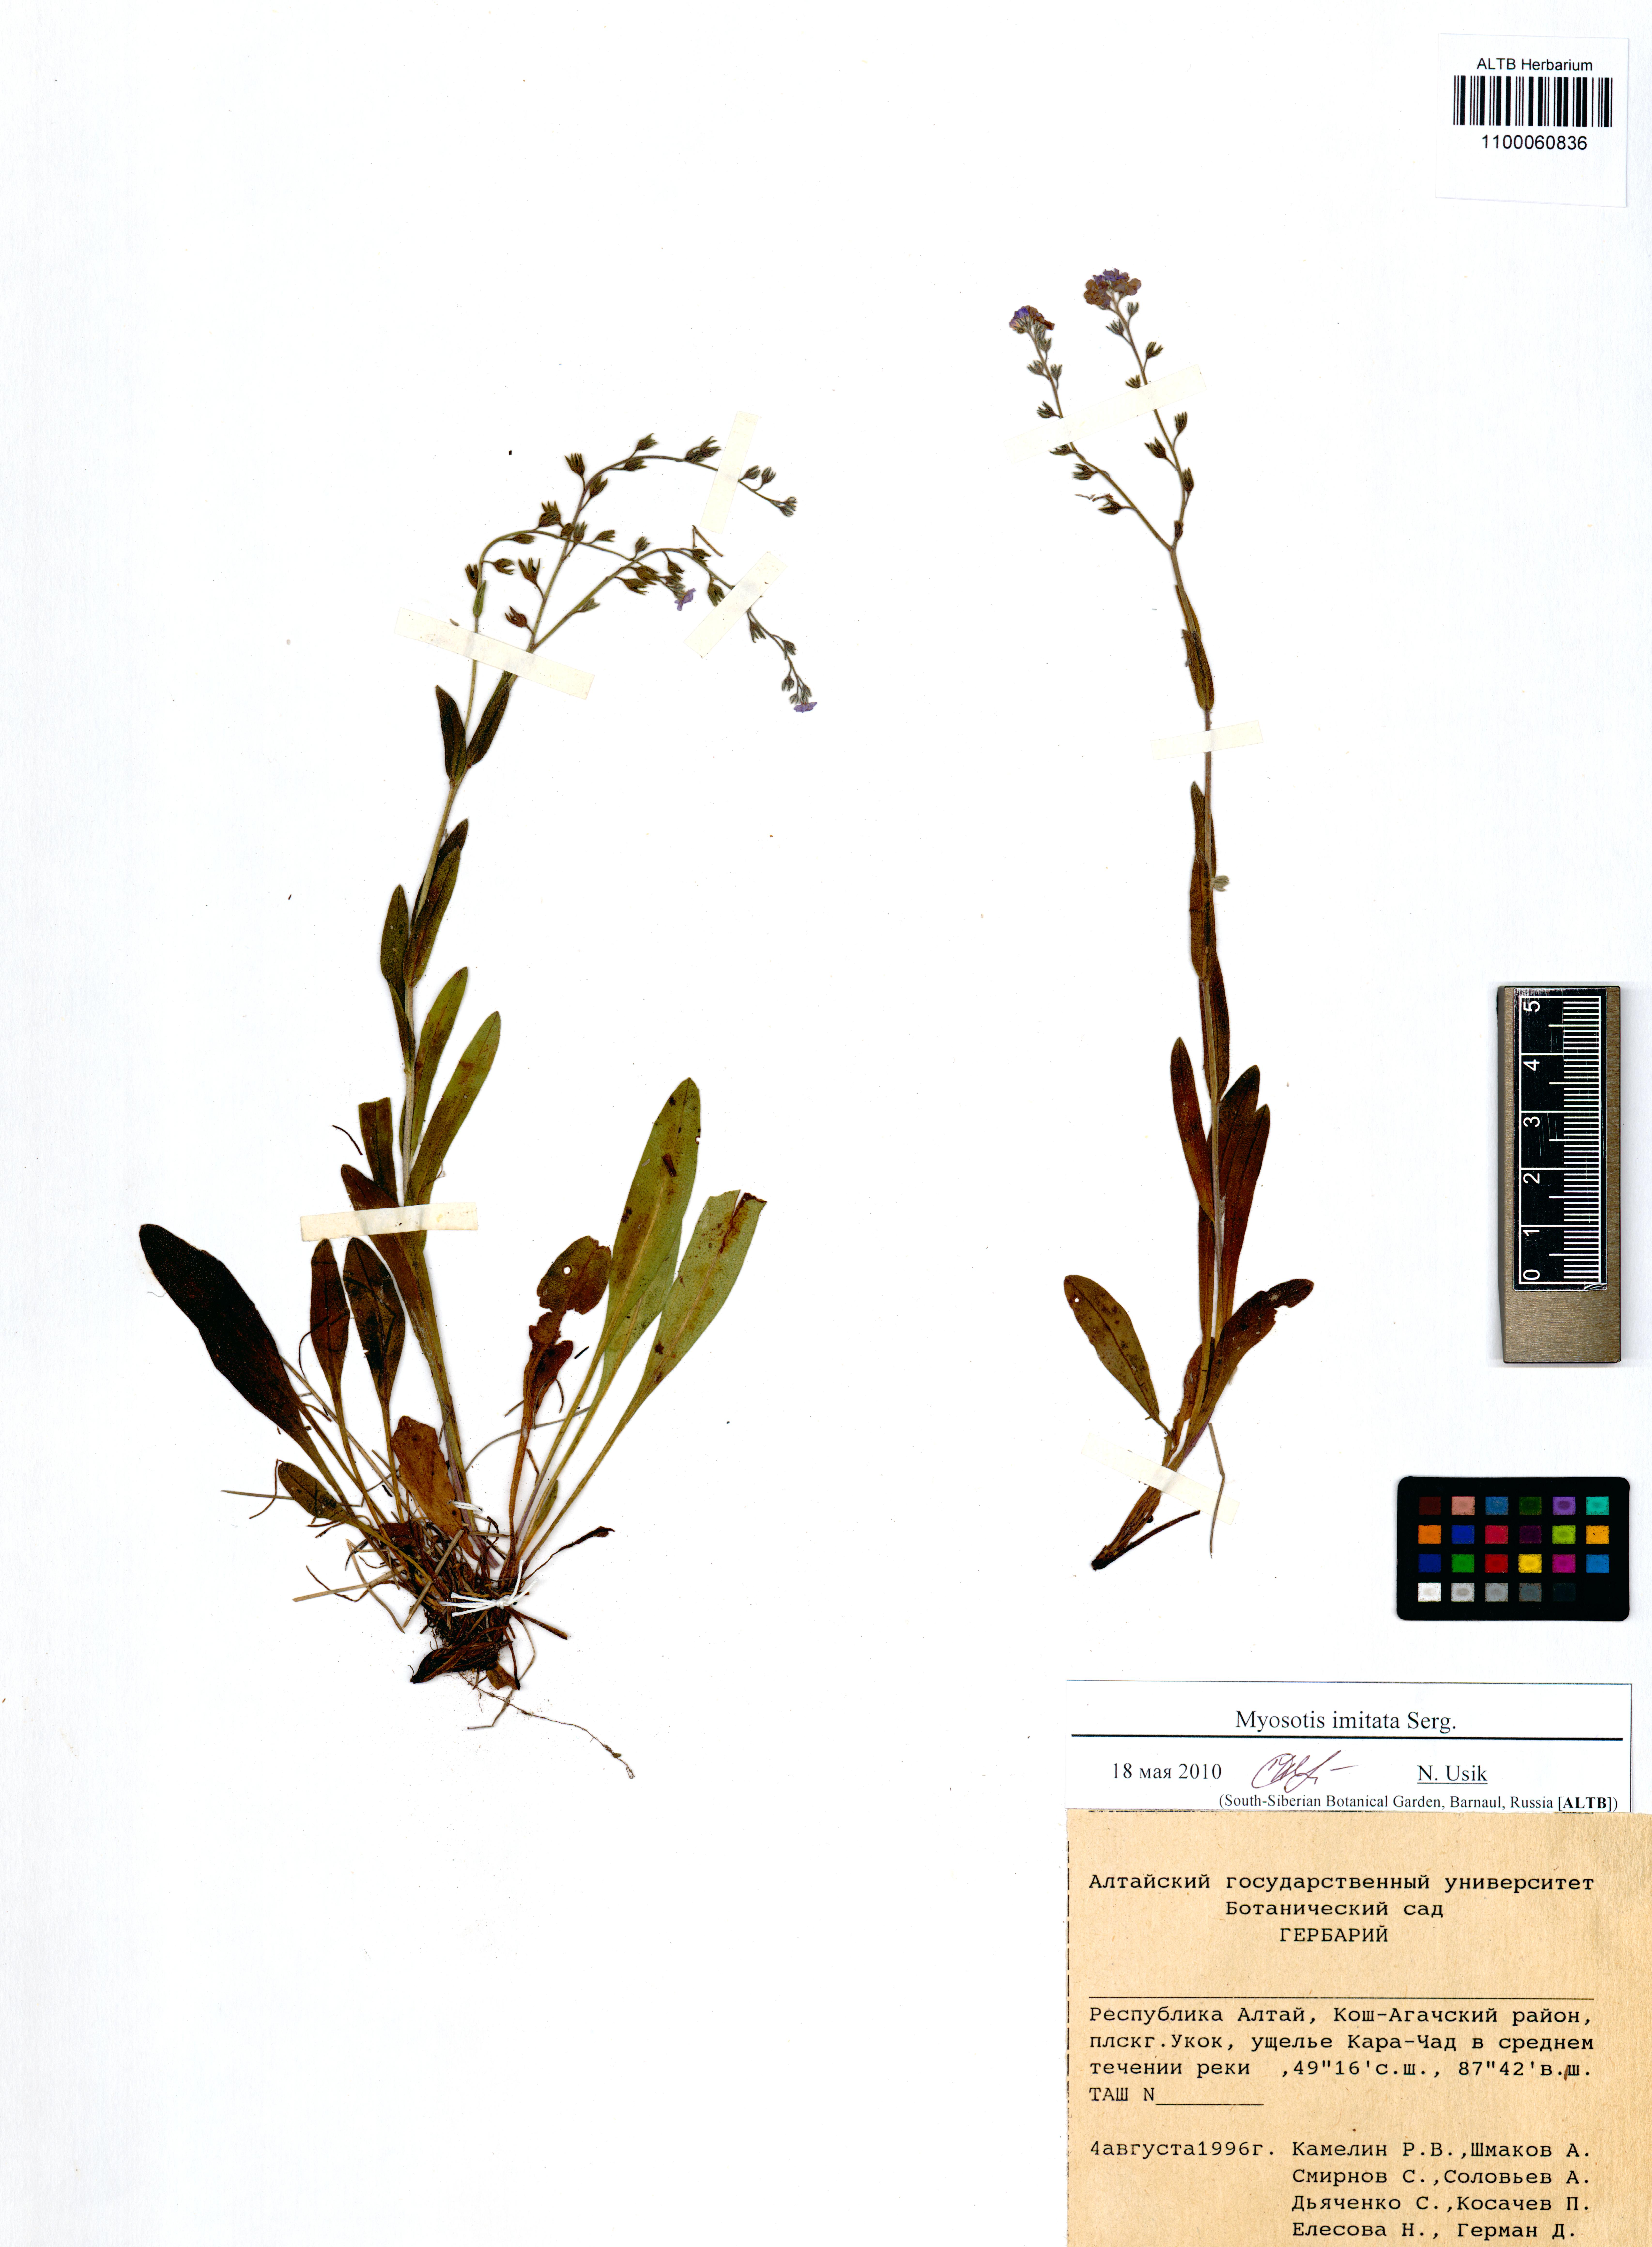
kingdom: Plantae
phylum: Tracheophyta
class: Magnoliopsida
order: Boraginales
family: Boraginaceae
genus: Myosotis
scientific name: Myosotis imitata
